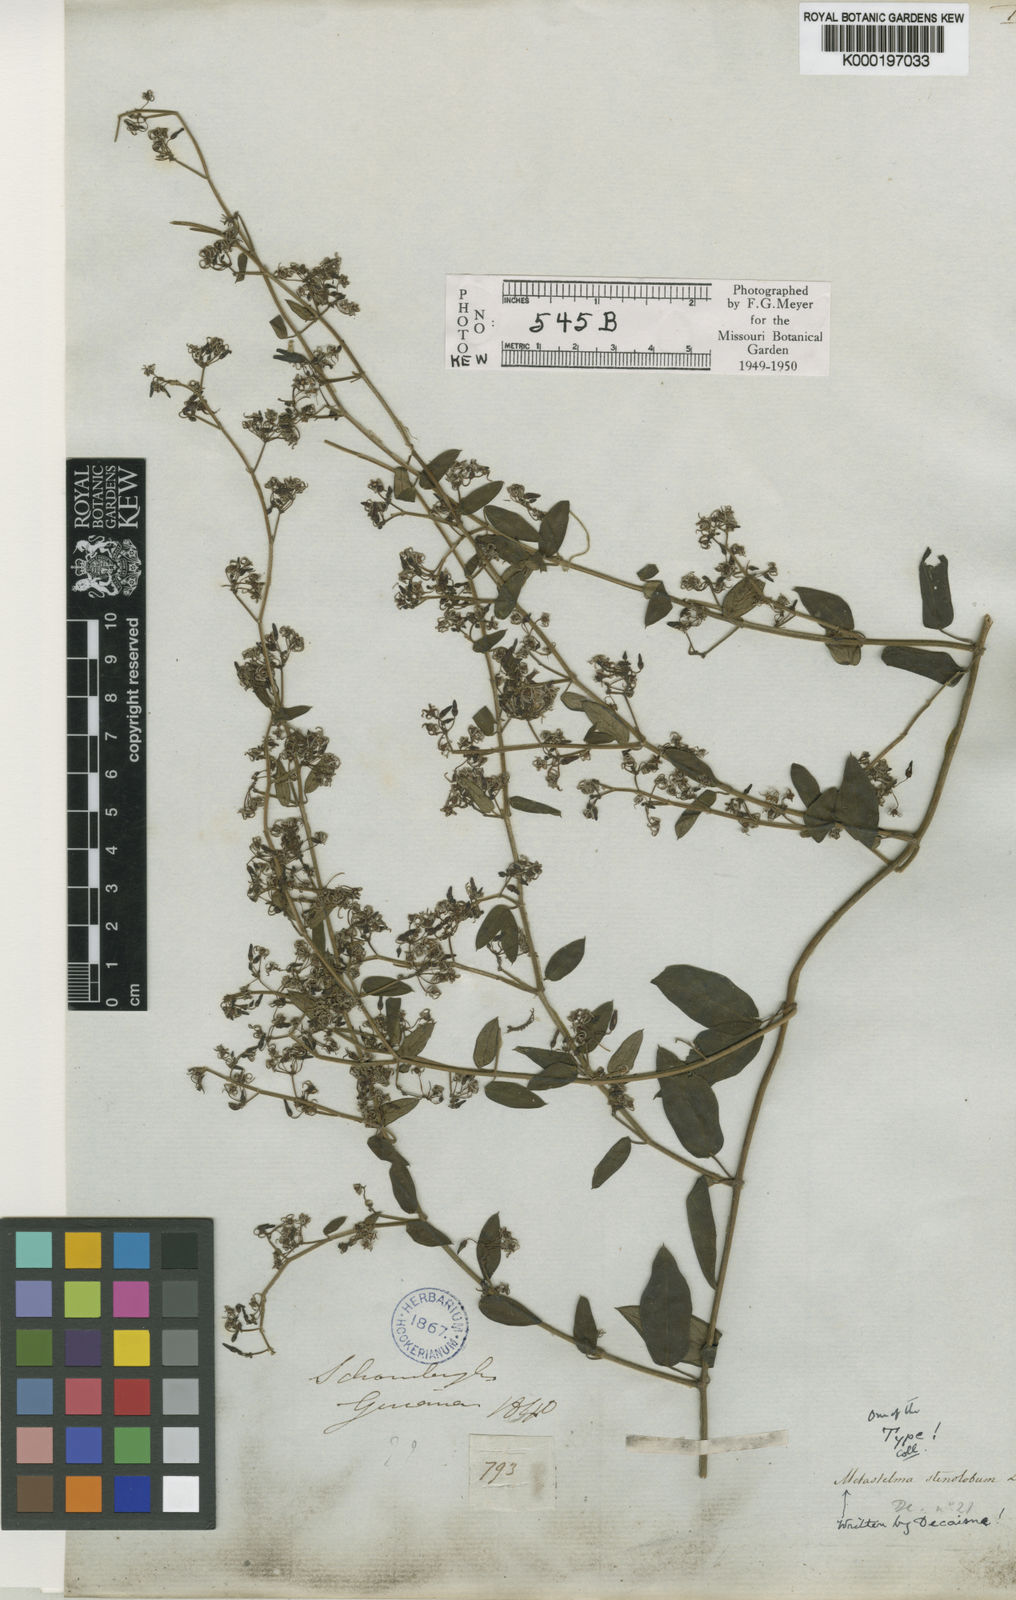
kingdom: Plantae
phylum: Tracheophyta
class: Magnoliopsida
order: Gentianales
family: Apocynaceae
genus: Tassadia
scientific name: Tassadia
